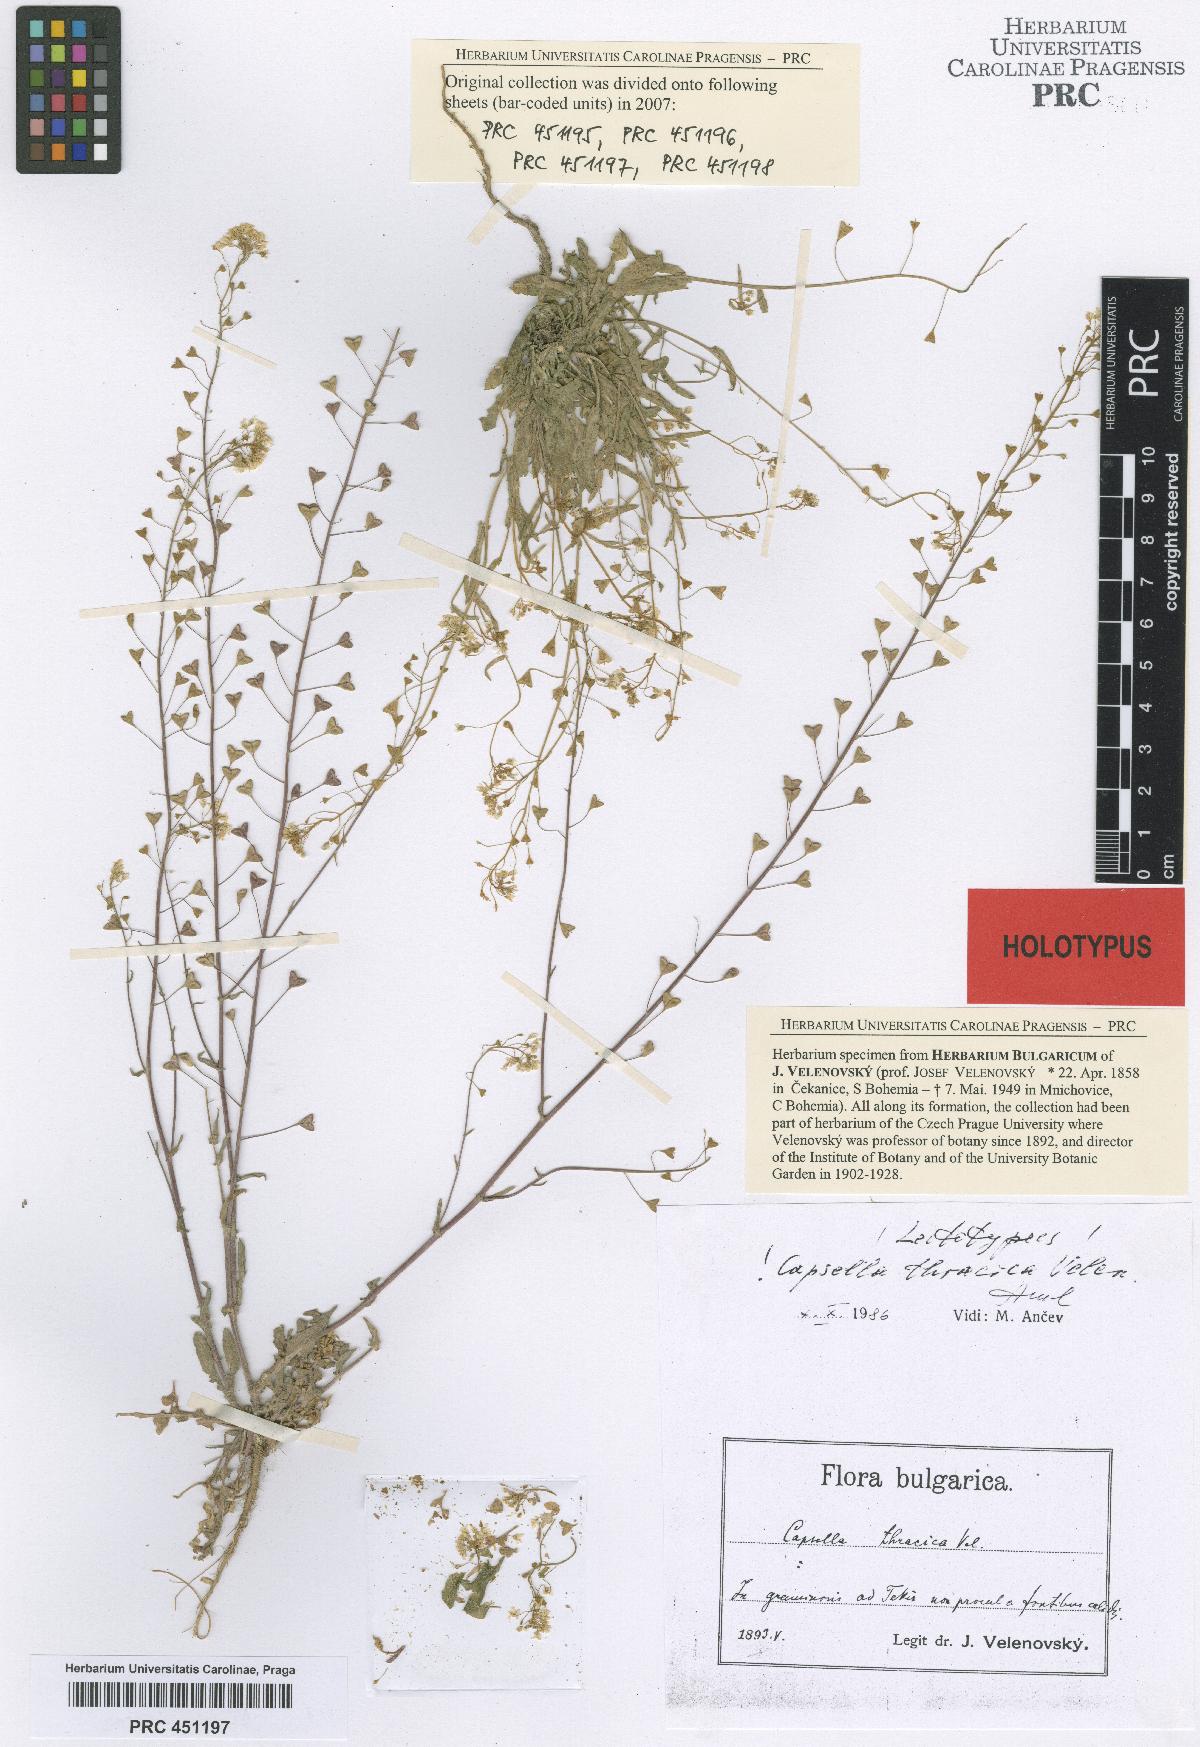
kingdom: Plantae
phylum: Tracheophyta
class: Magnoliopsida
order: Brassicales
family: Brassicaceae
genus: Capsella
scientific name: Capsella thracica
